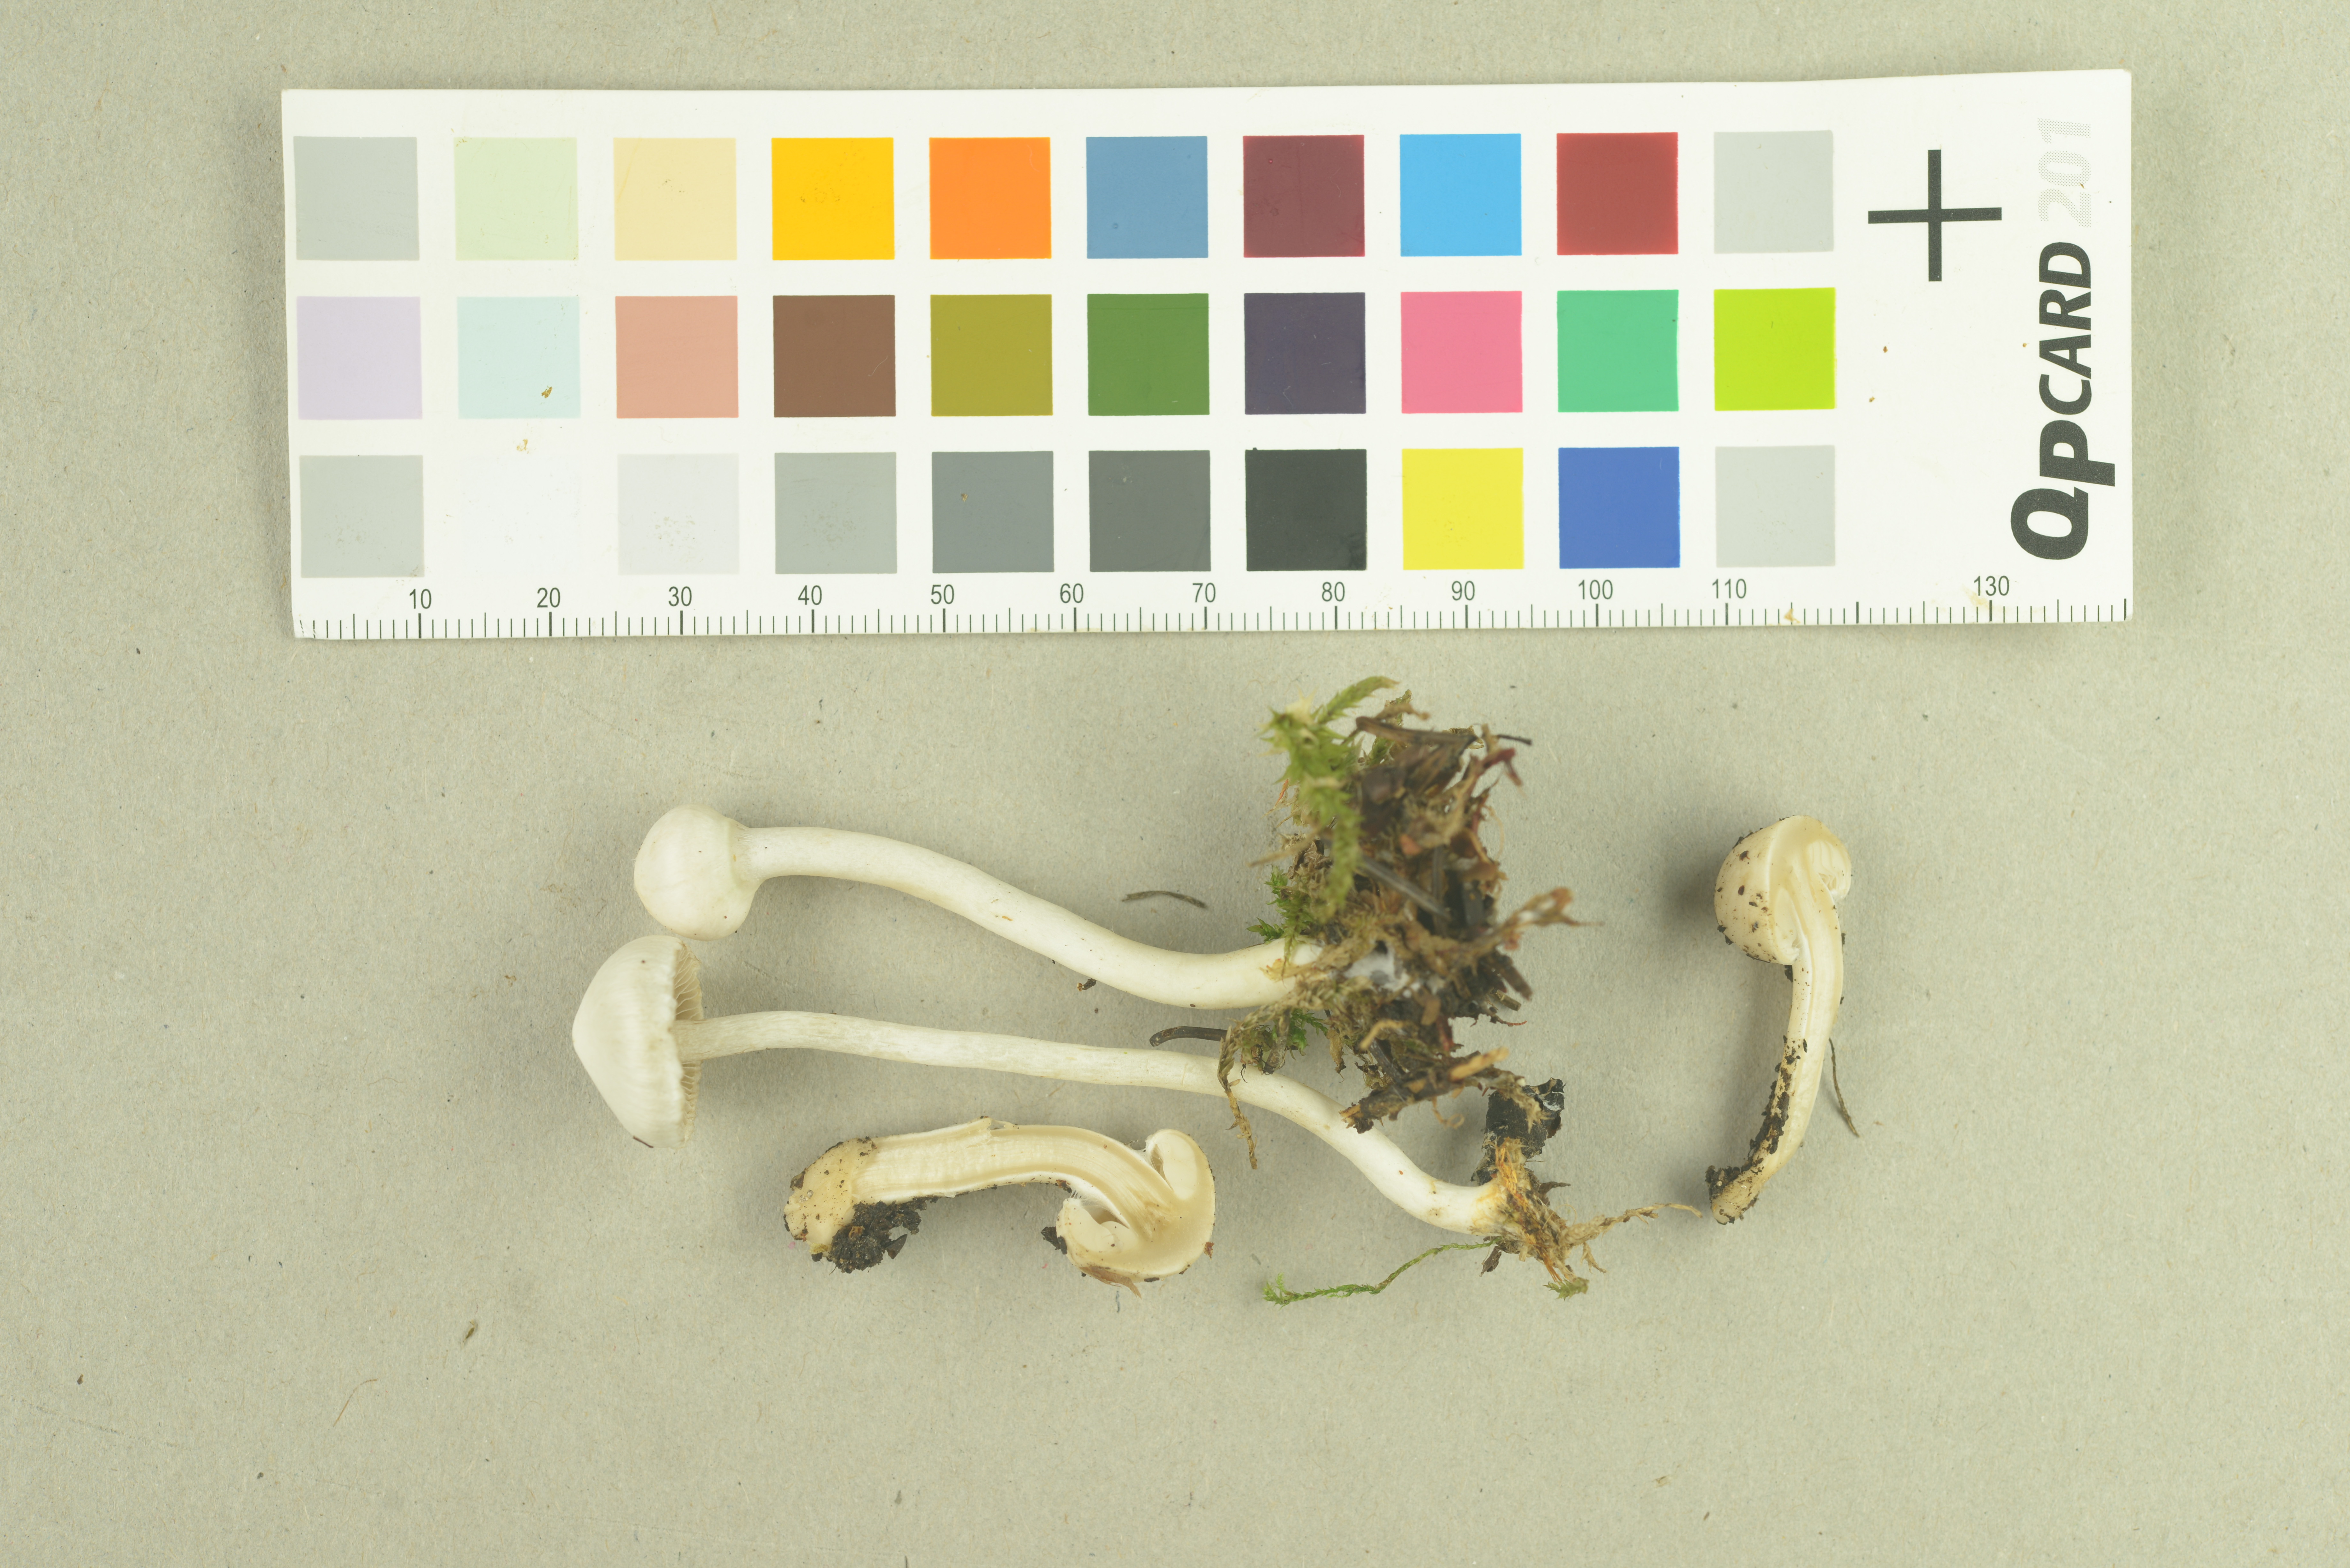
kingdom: Fungi
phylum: Basidiomycota
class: Agaricomycetes
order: Agaricales
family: Inocybaceae
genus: Inocybe
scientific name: Inocybe geophylla
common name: White fibrecap
